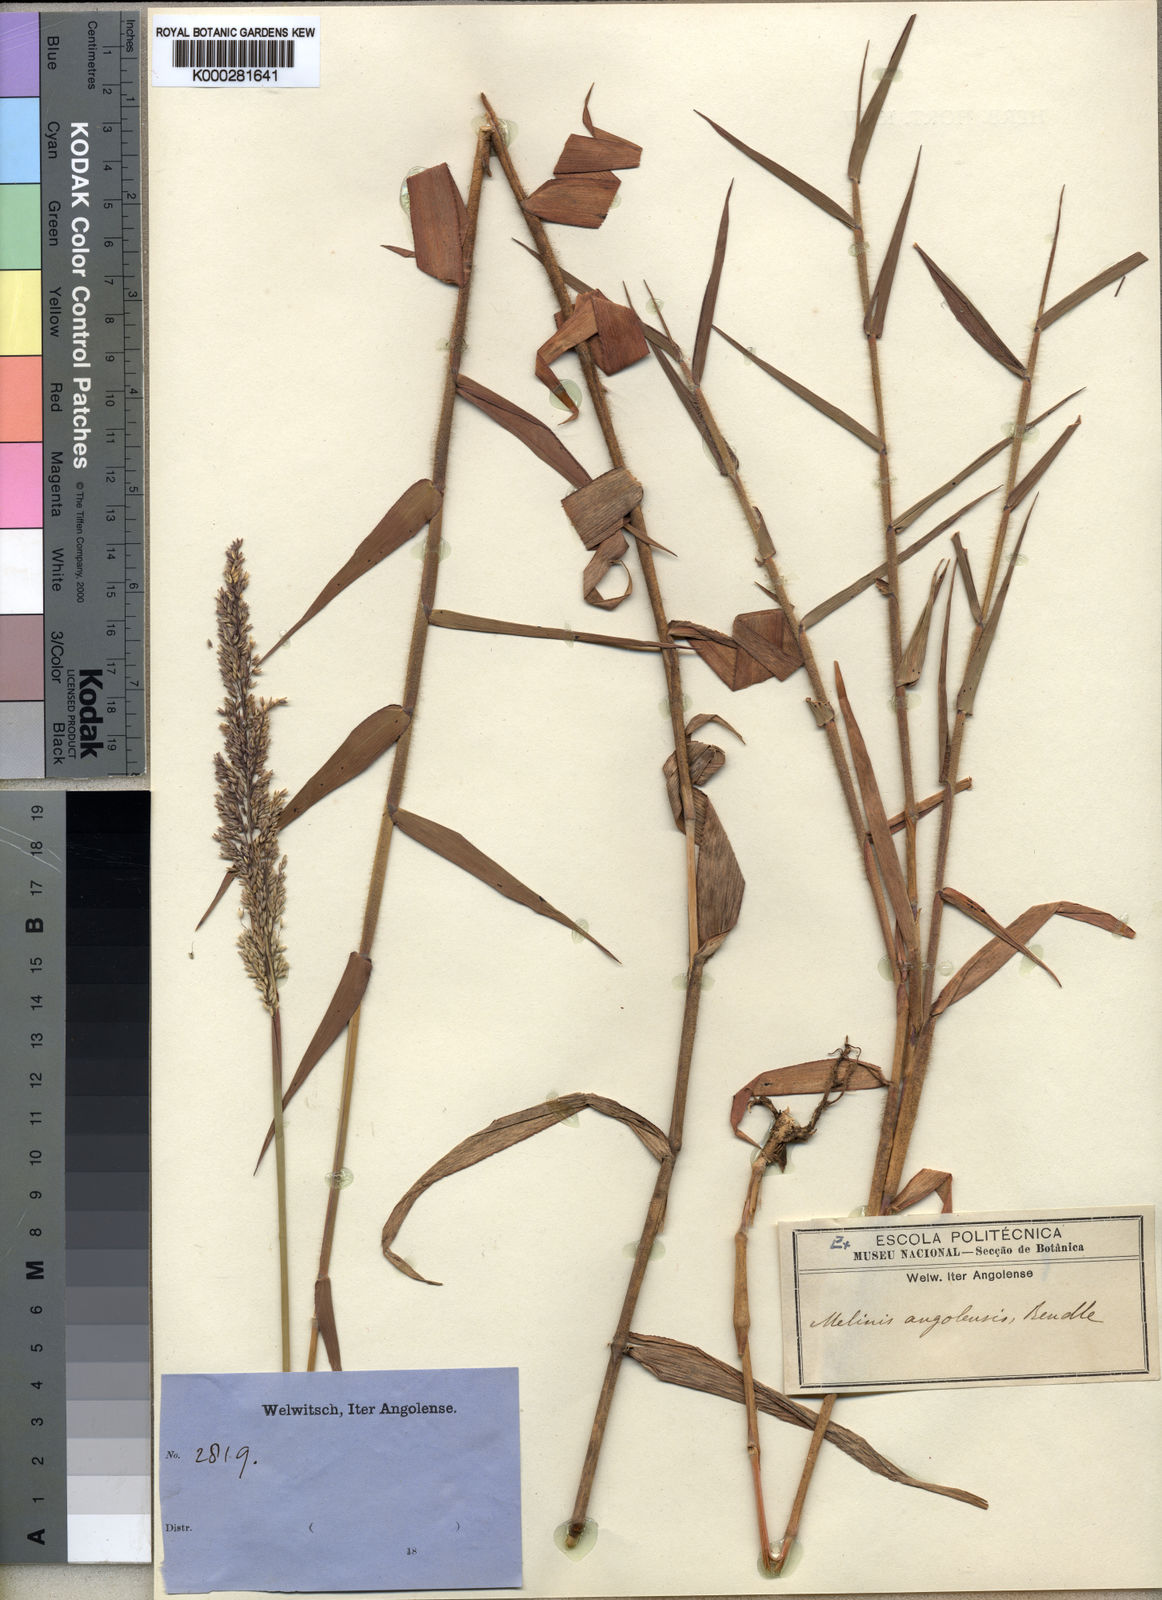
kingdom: Plantae
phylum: Tracheophyta
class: Liliopsida
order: Poales
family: Poaceae
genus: Melinis
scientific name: Melinis angolensis
